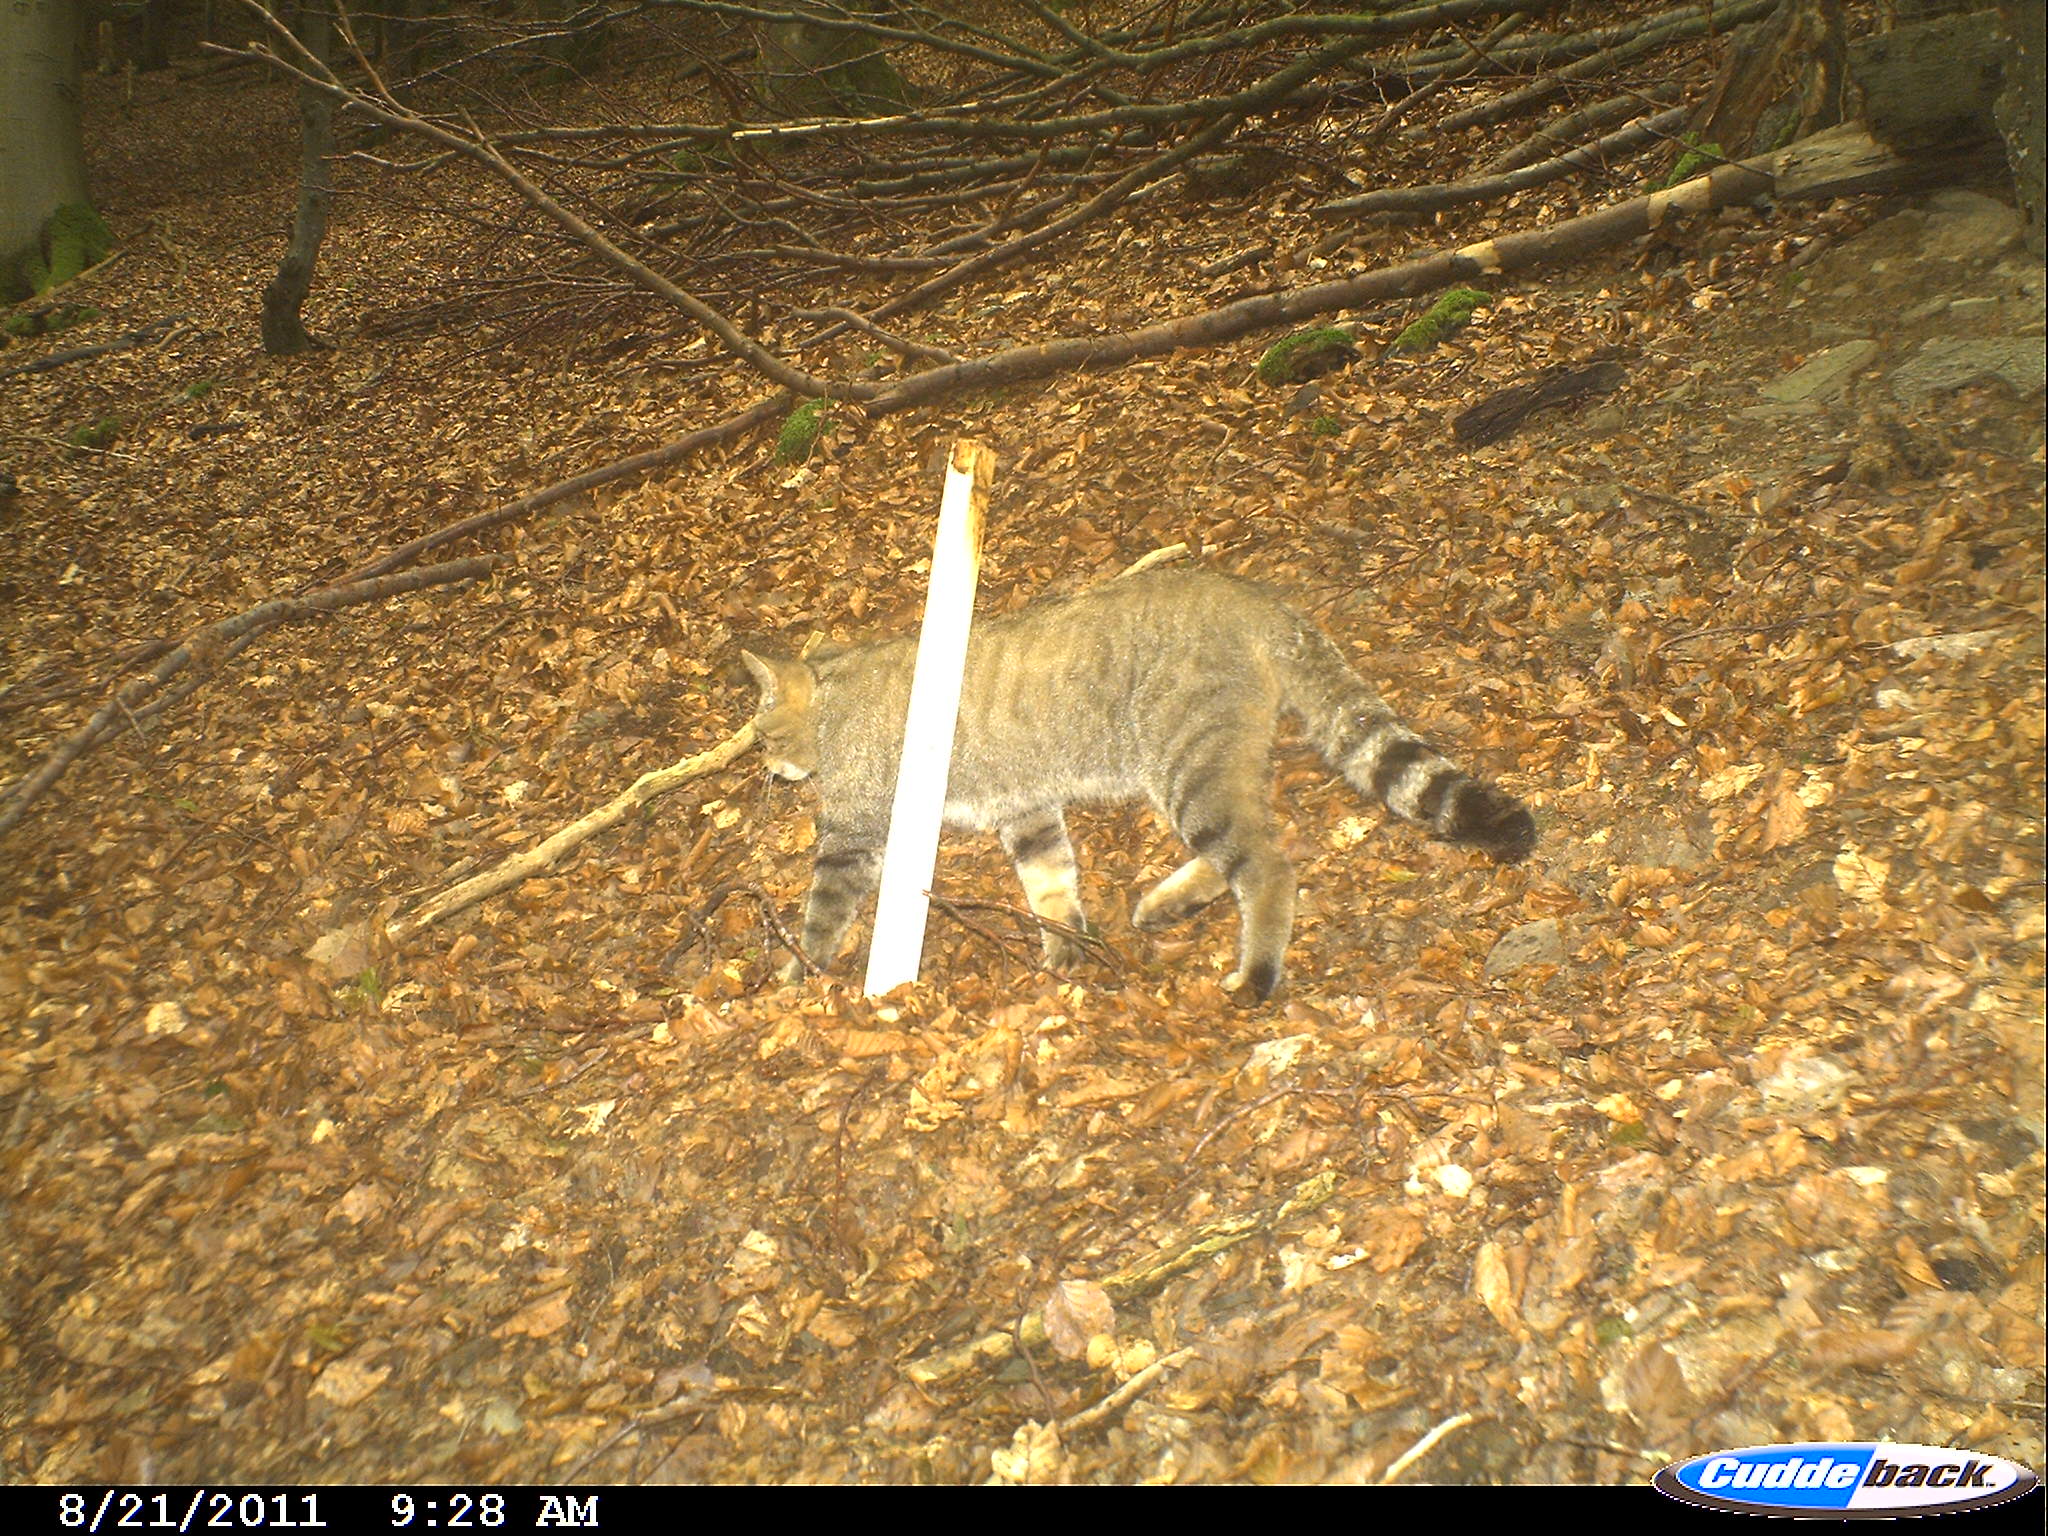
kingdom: Animalia
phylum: Chordata
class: Mammalia
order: Carnivora
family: Felidae
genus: Felis
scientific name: Felis silvestris
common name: Wildcat
